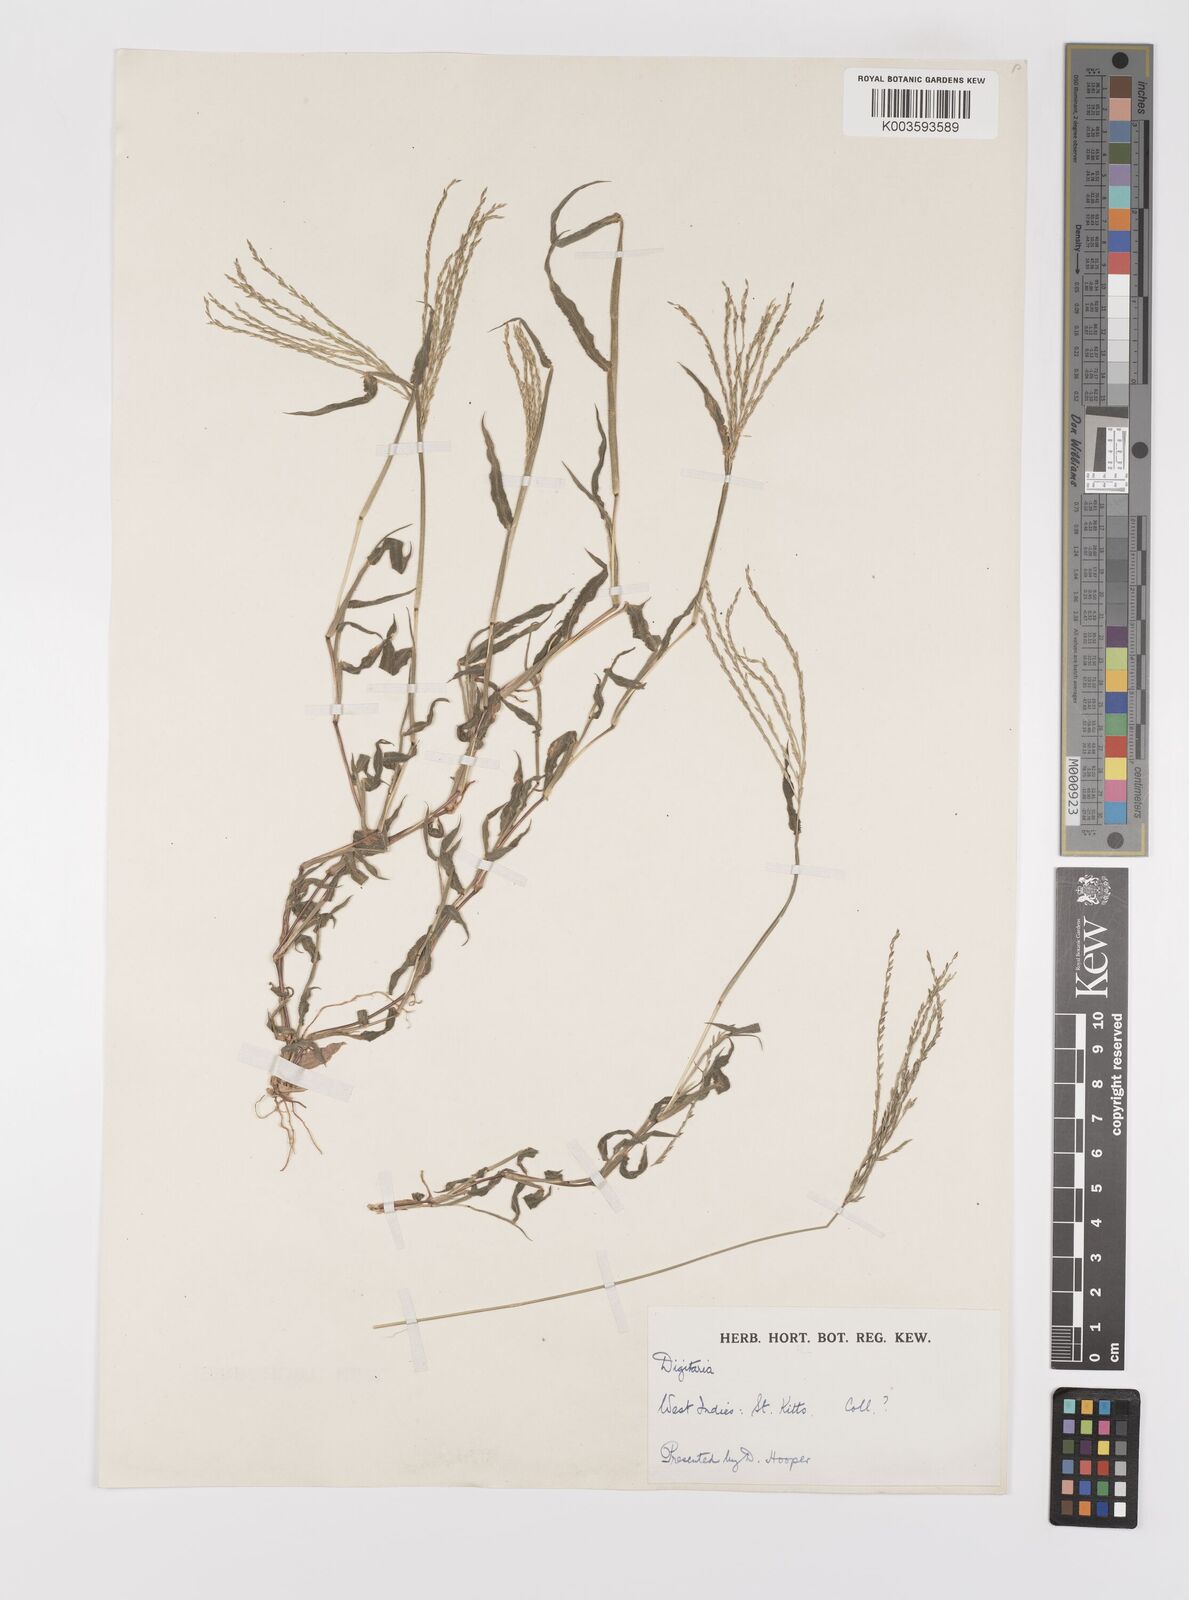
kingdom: Plantae
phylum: Tracheophyta
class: Liliopsida
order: Poales
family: Poaceae
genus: Digitaria
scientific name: Digitaria ciliaris
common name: Tropical finger-grass
